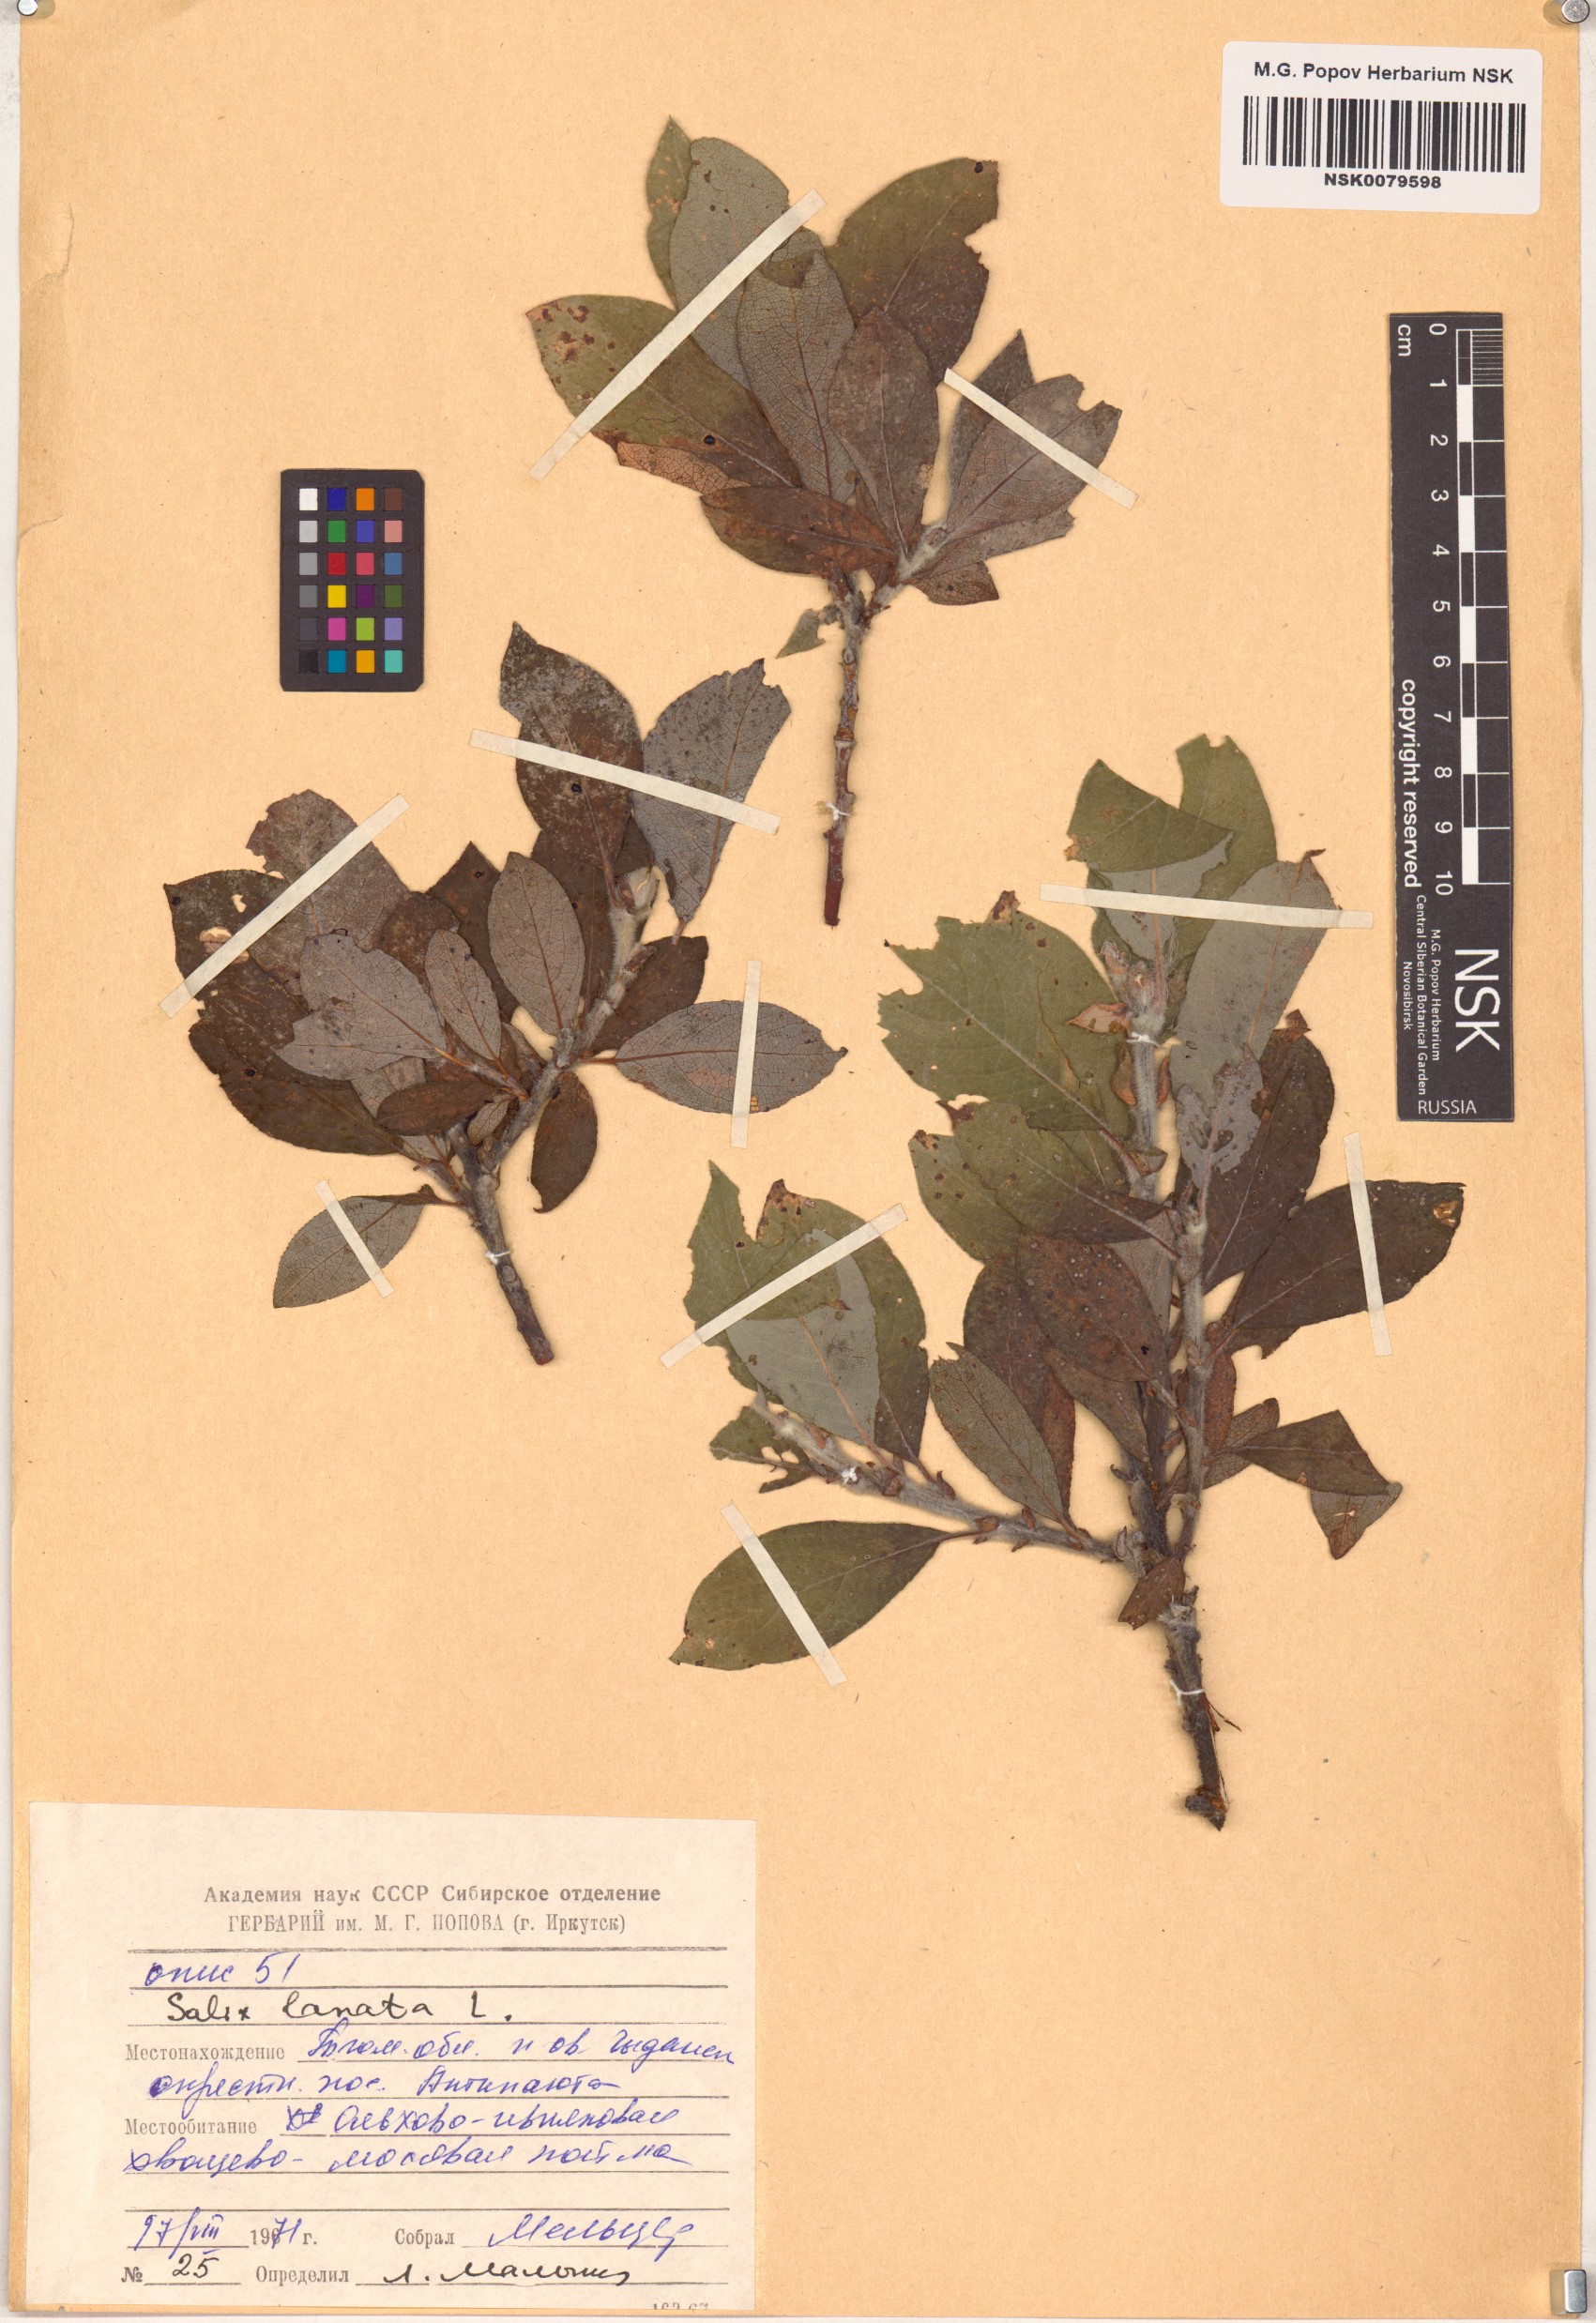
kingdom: Plantae
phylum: Tracheophyta
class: Magnoliopsida
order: Malpighiales
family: Salicaceae
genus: Salix
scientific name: Salix lanata
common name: Woolly willow
